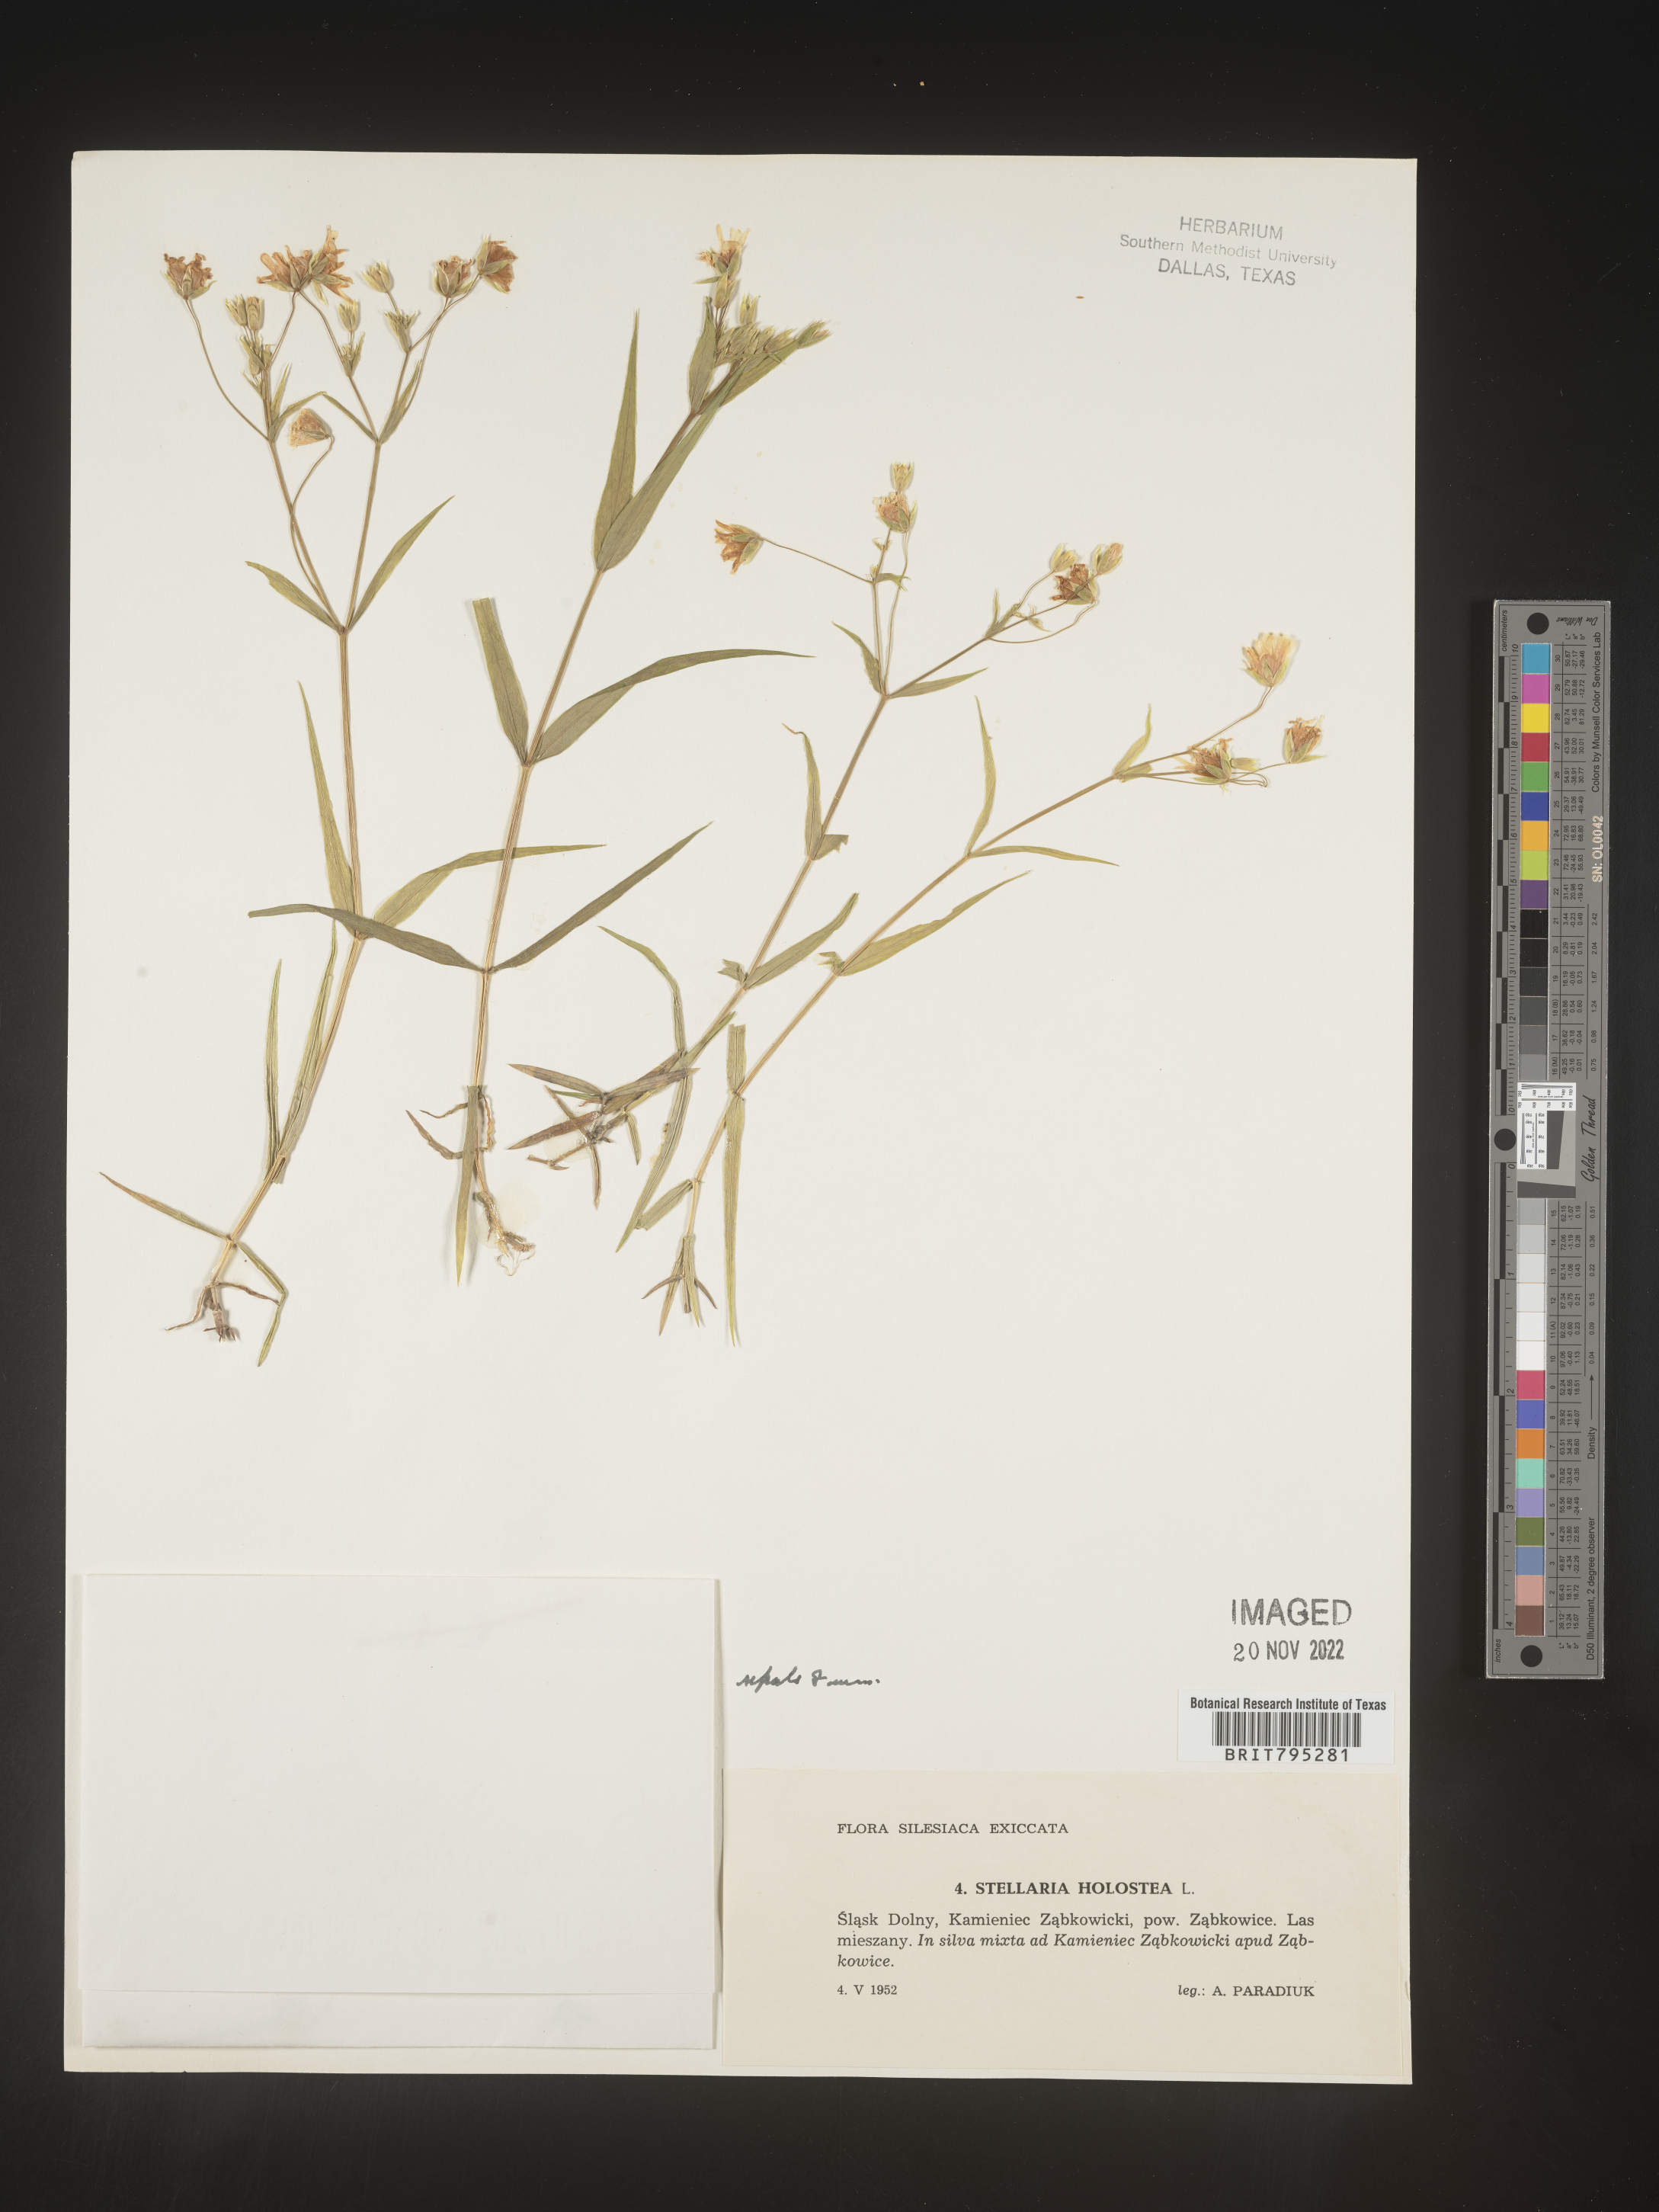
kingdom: Plantae
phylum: Tracheophyta
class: Magnoliopsida
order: Caryophyllales
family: Caryophyllaceae
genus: Stellaria
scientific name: Stellaria
